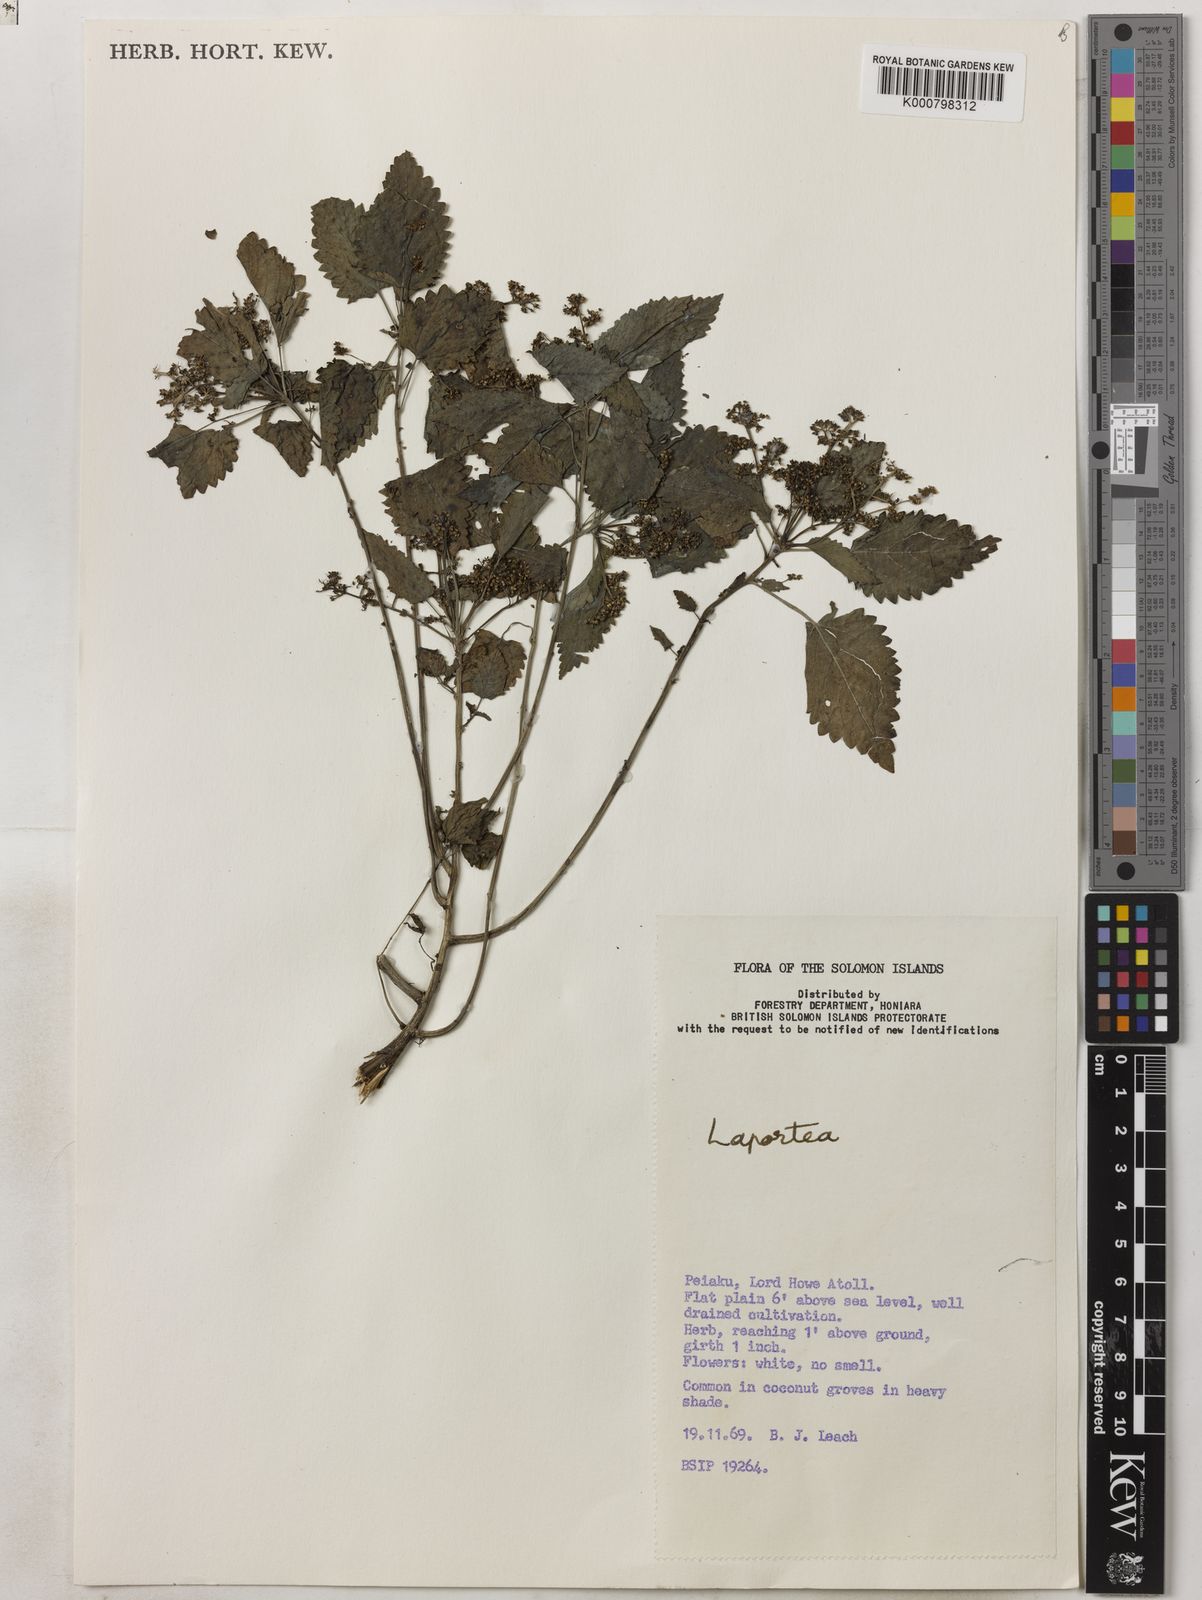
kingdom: Plantae
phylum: Tracheophyta
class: Magnoliopsida
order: Rosales
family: Urticaceae
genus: Laportea
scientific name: Laportea interrupta
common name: Hawaiian wood-nettle
